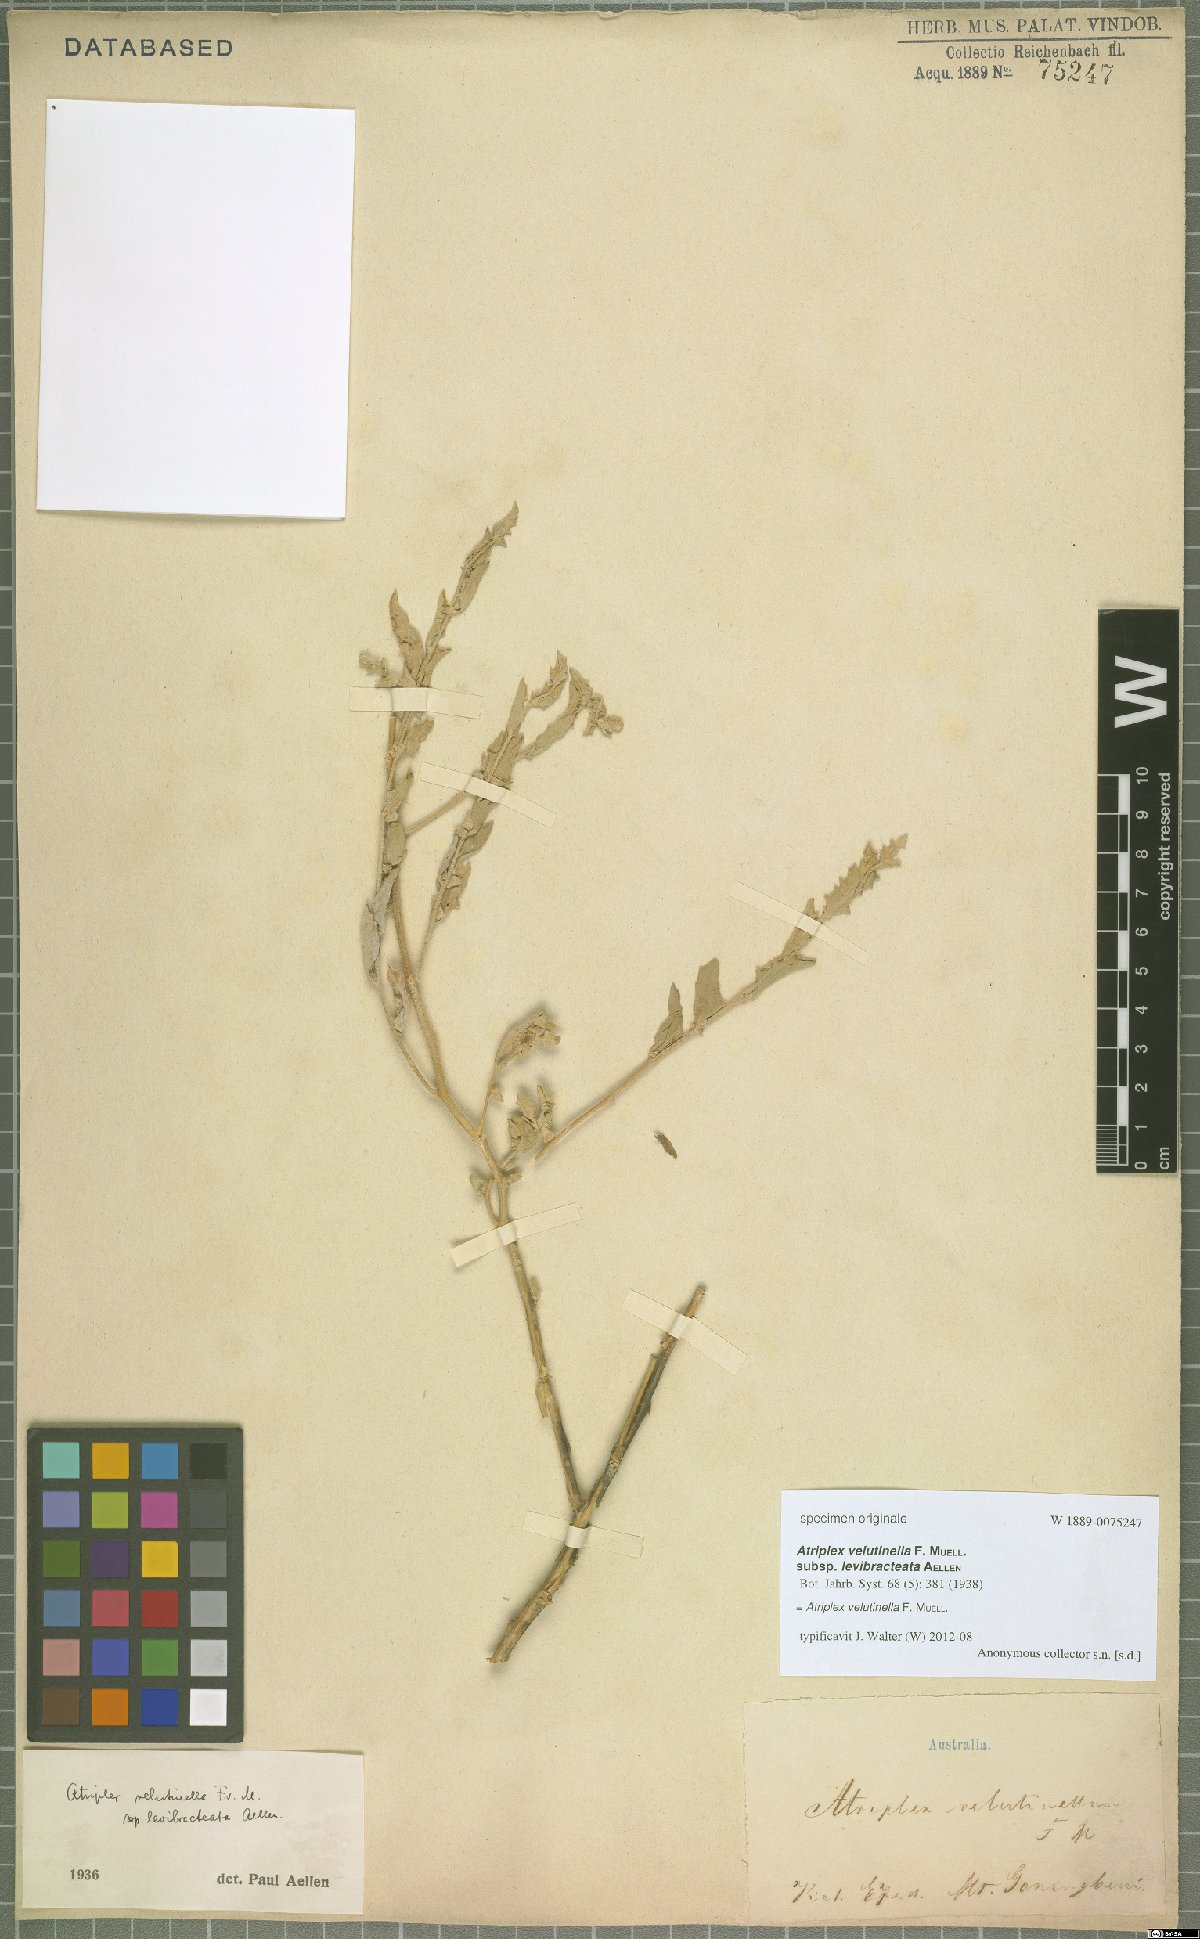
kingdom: Plantae
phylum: Tracheophyta
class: Magnoliopsida
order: Caryophyllales
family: Amaranthaceae
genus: Atriplex
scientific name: Atriplex velutinella
